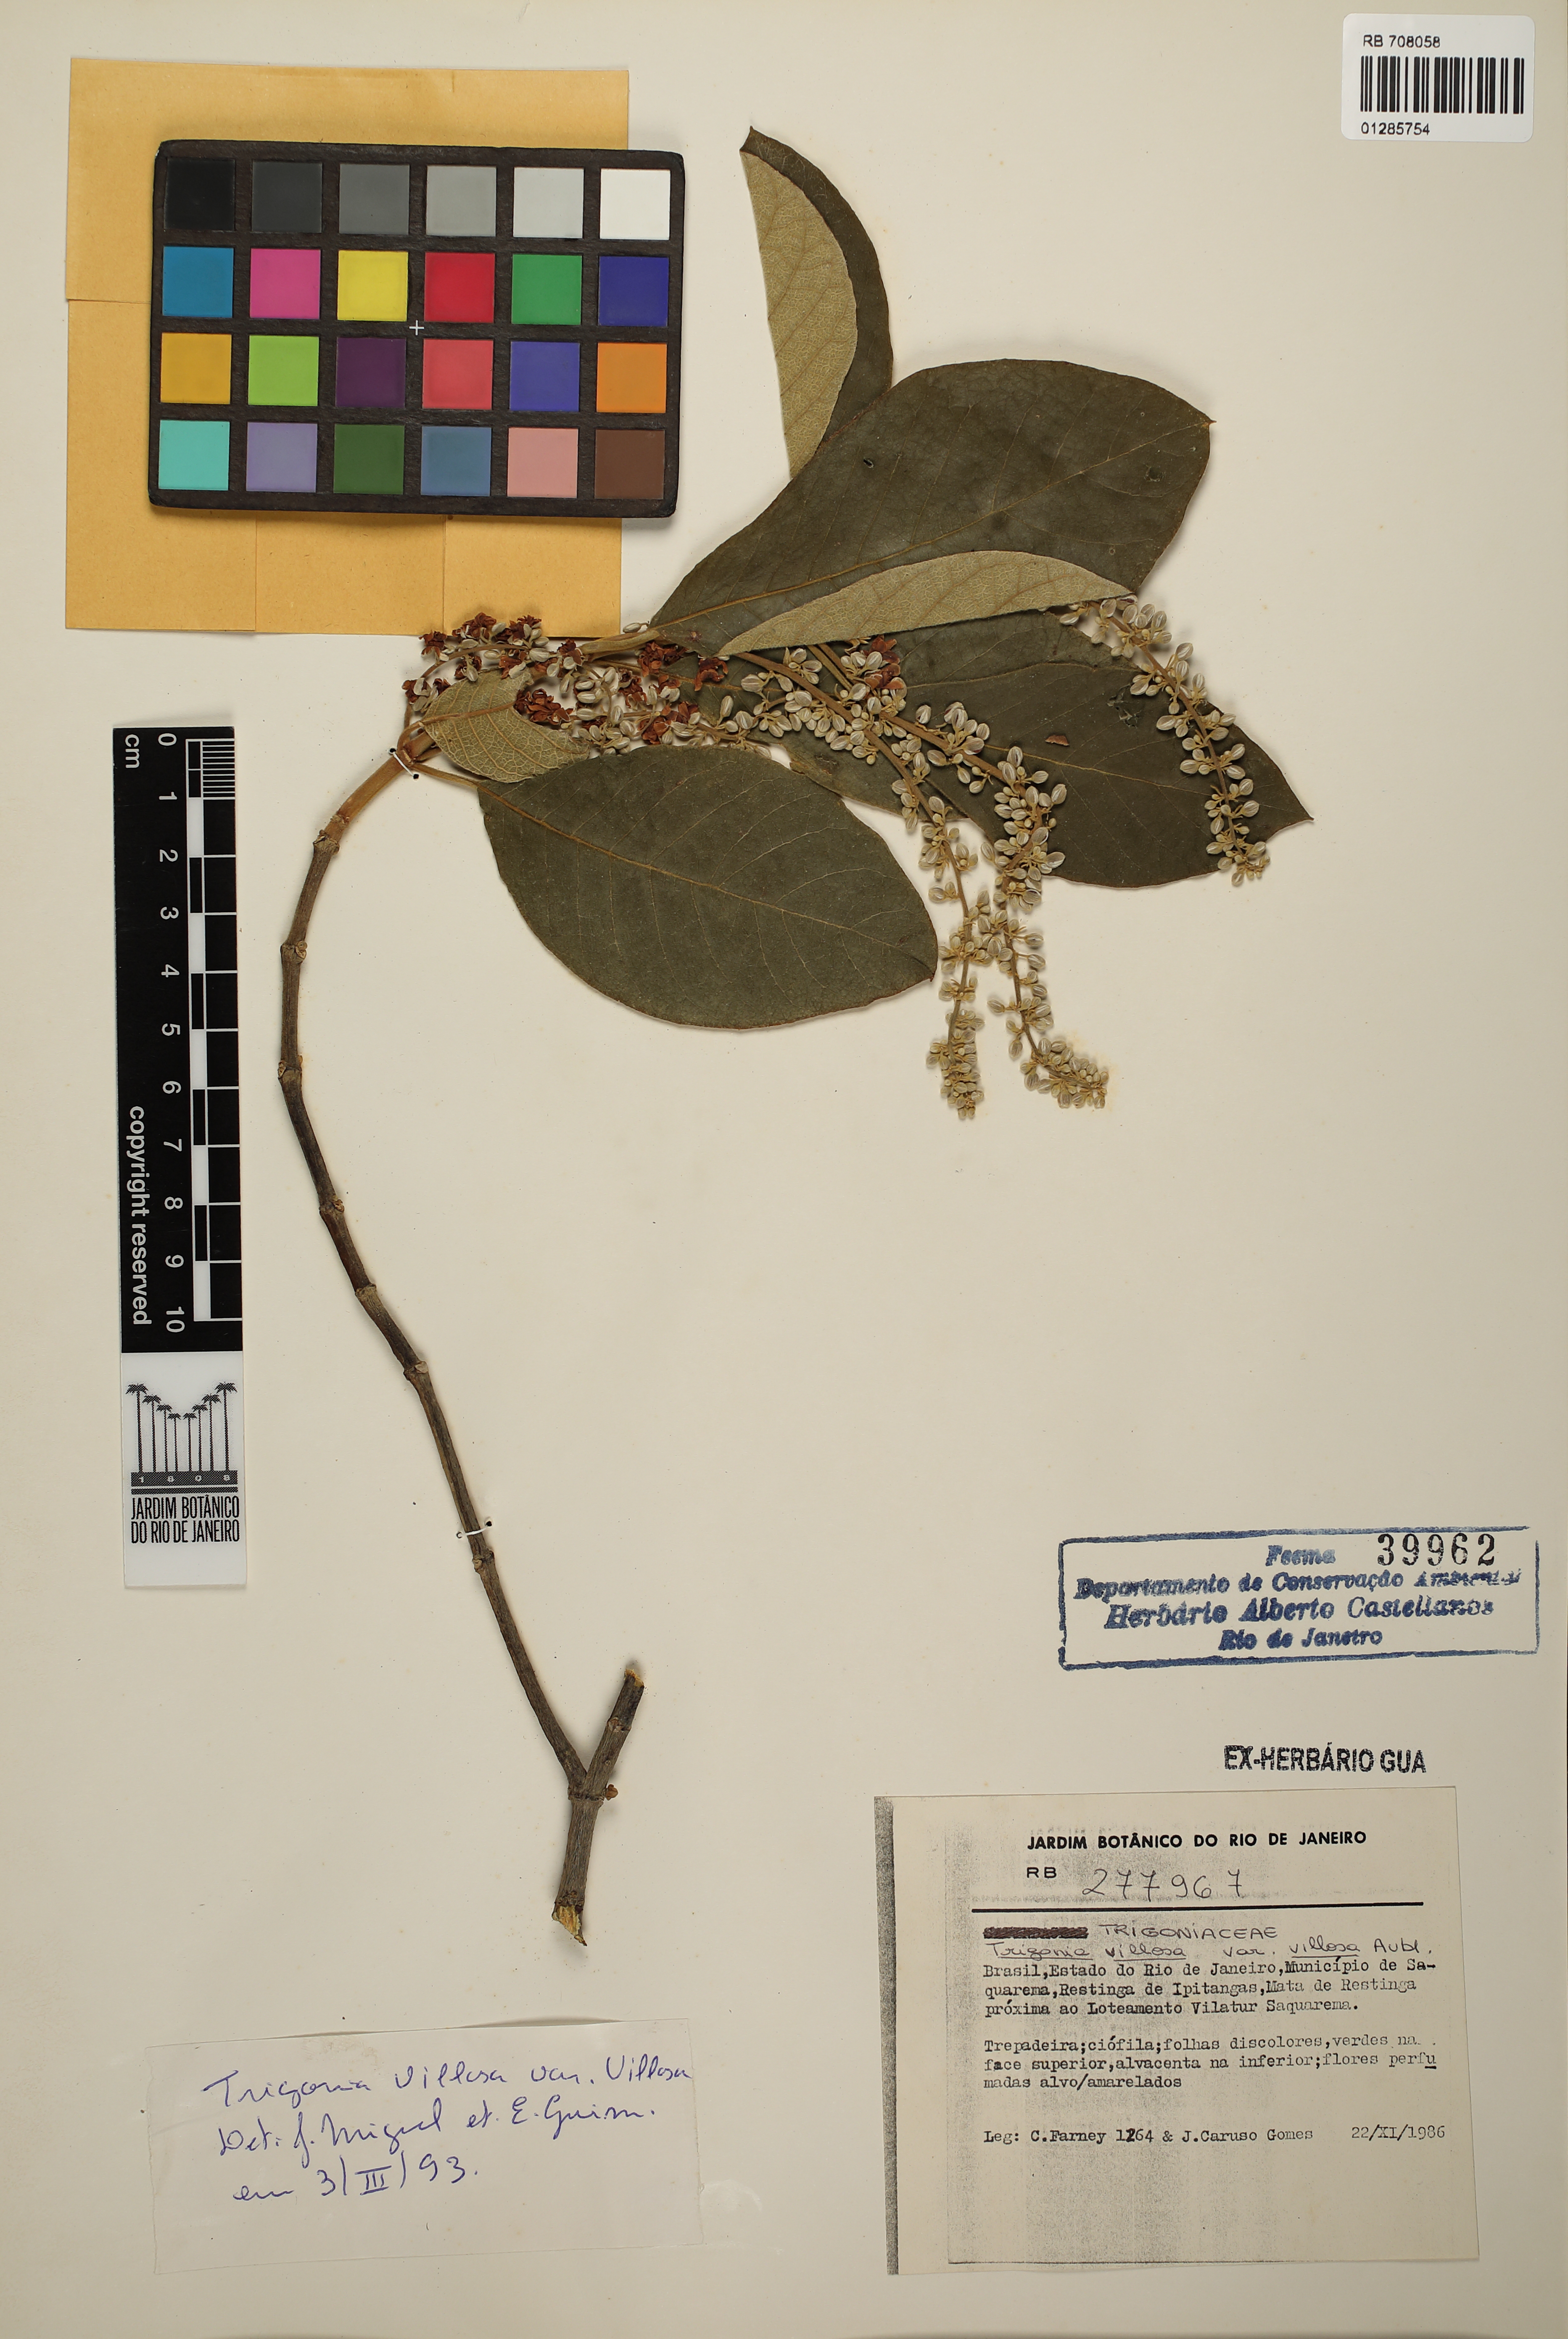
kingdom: Plantae
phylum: Tracheophyta
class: Magnoliopsida
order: Malpighiales
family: Trigoniaceae
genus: Trigonia
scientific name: Trigonia villosa
